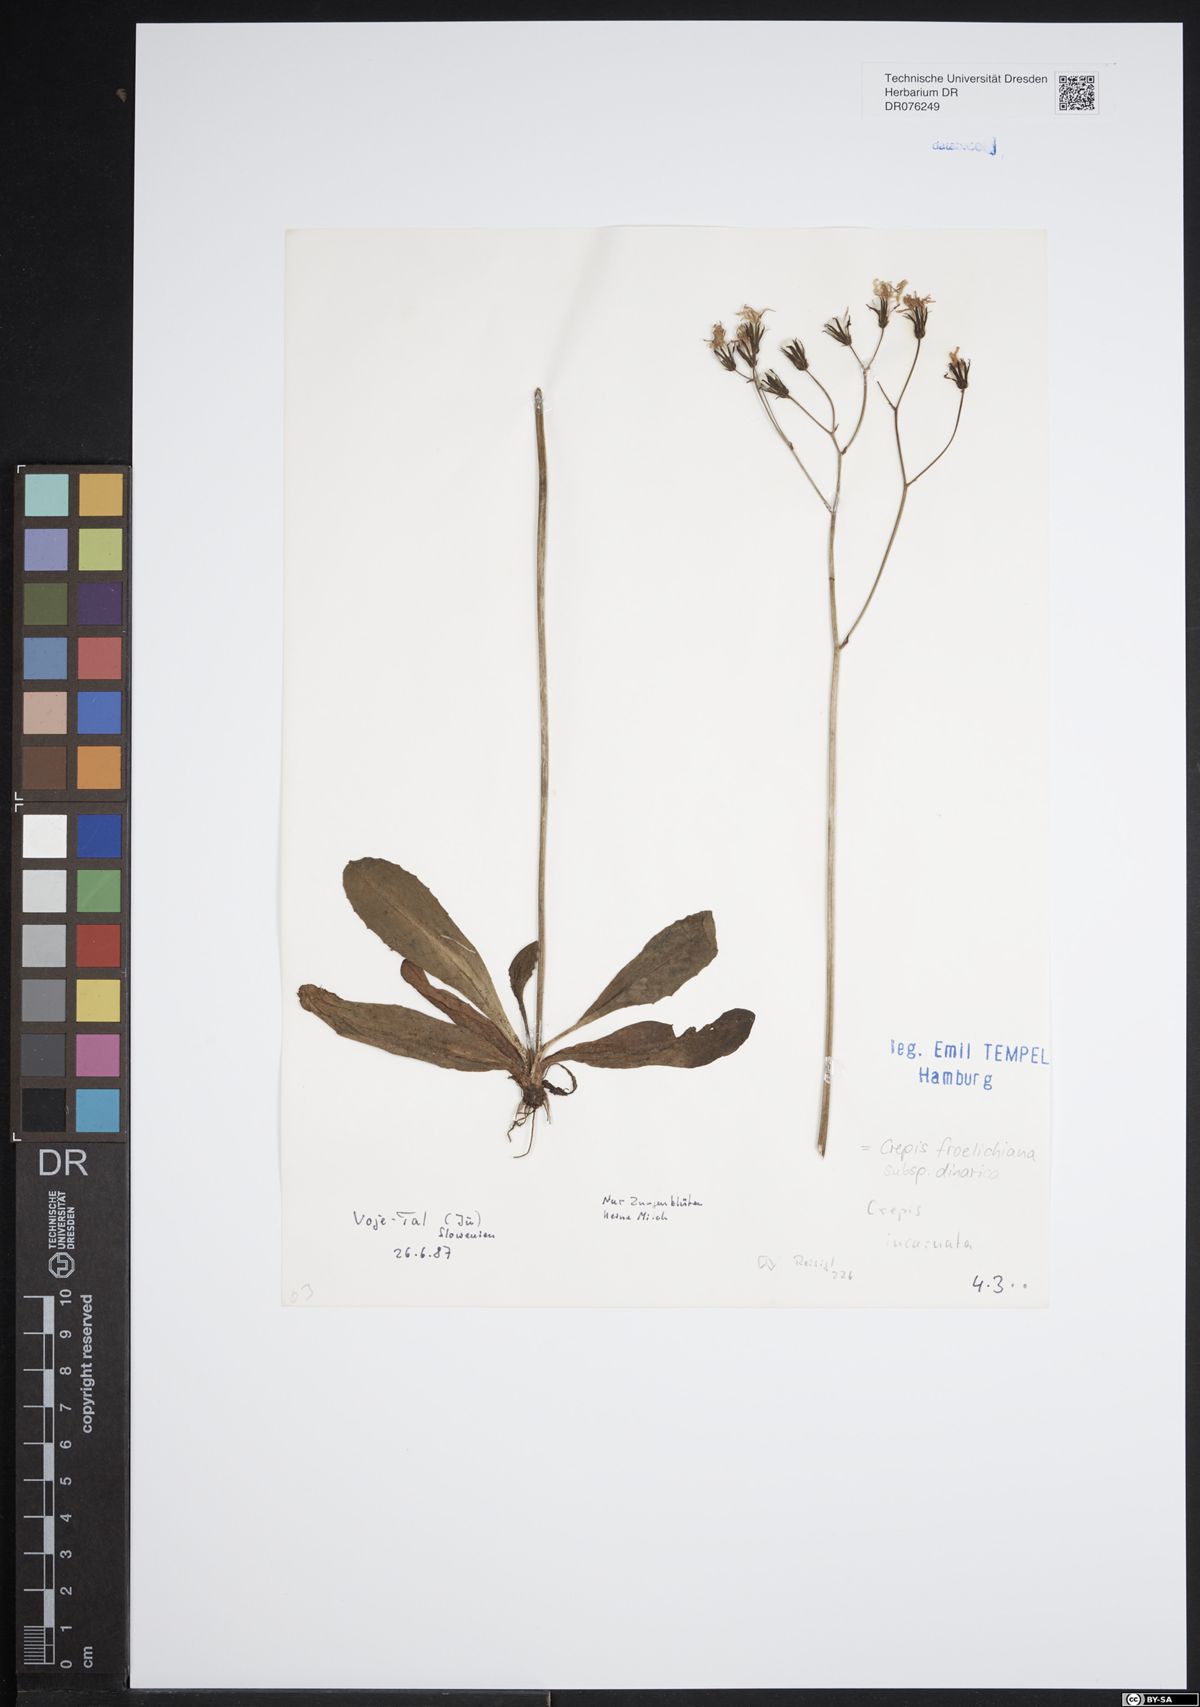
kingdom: Plantae
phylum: Tracheophyta
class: Magnoliopsida
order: Asterales
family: Asteraceae
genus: Crepis
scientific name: Crepis froelichiana
